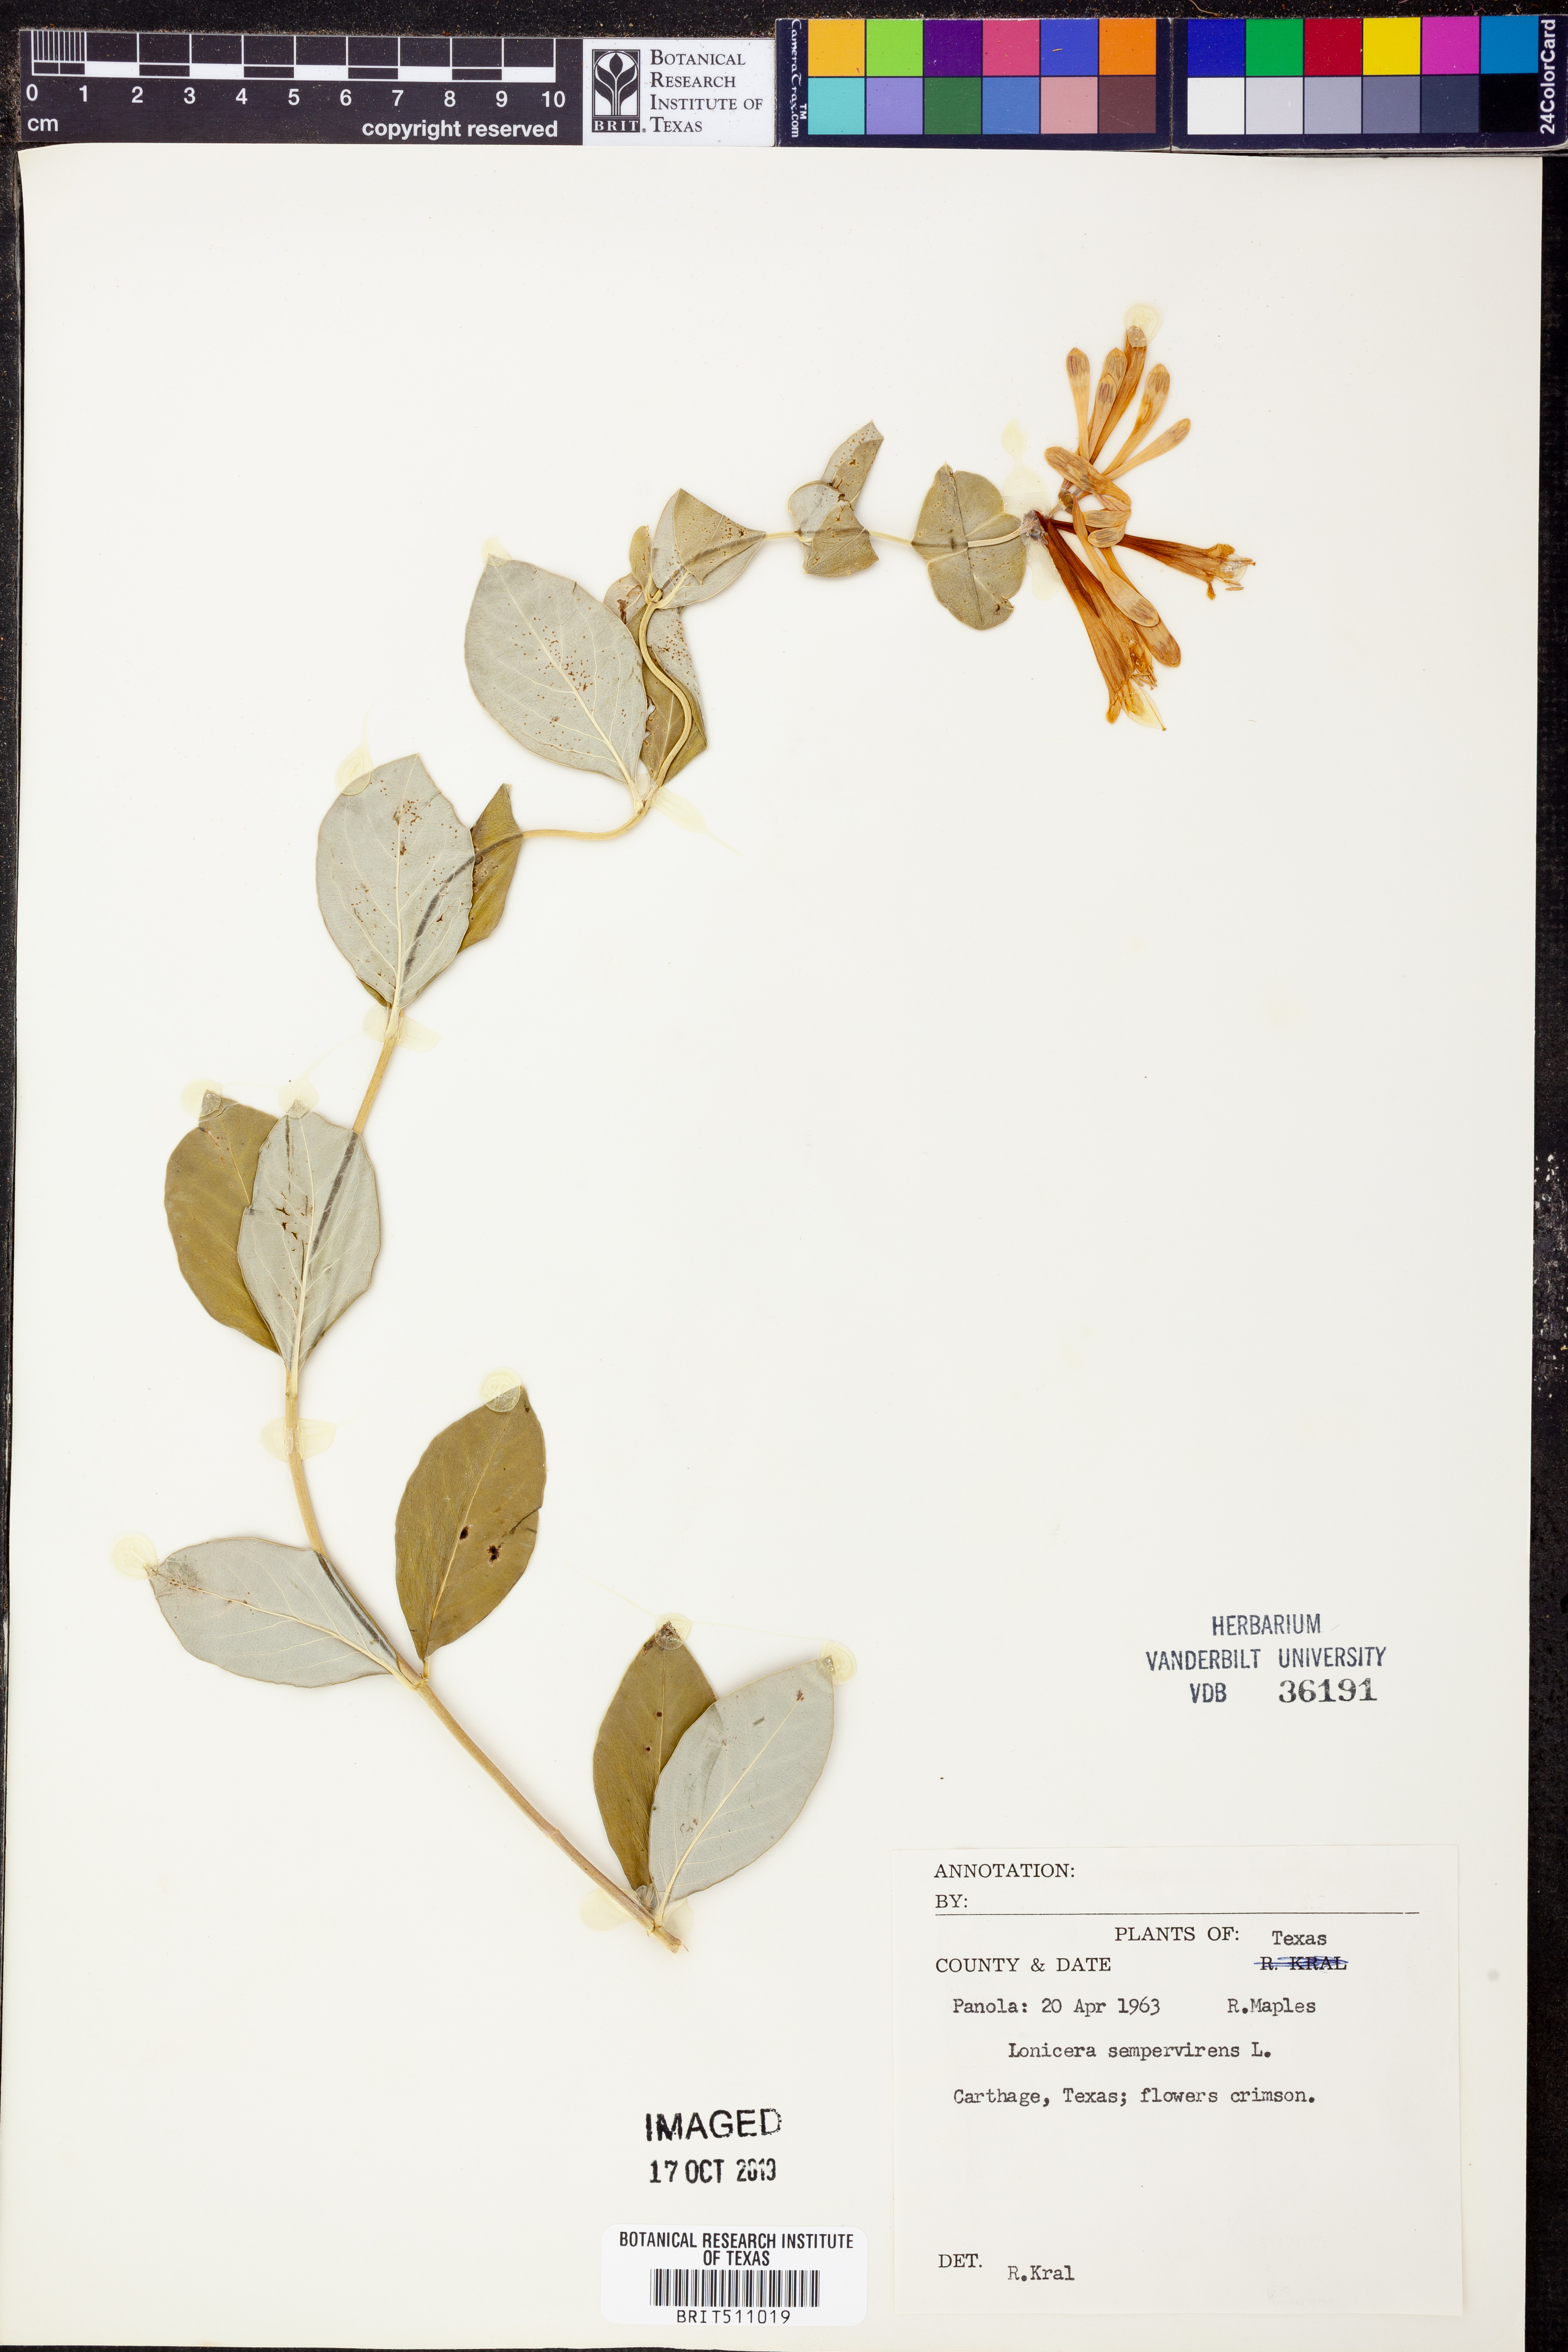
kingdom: Plantae
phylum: Tracheophyta
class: Magnoliopsida
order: Dipsacales
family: Caprifoliaceae
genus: Lonicera
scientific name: Lonicera sempervirens
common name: Coral honeysuckle
